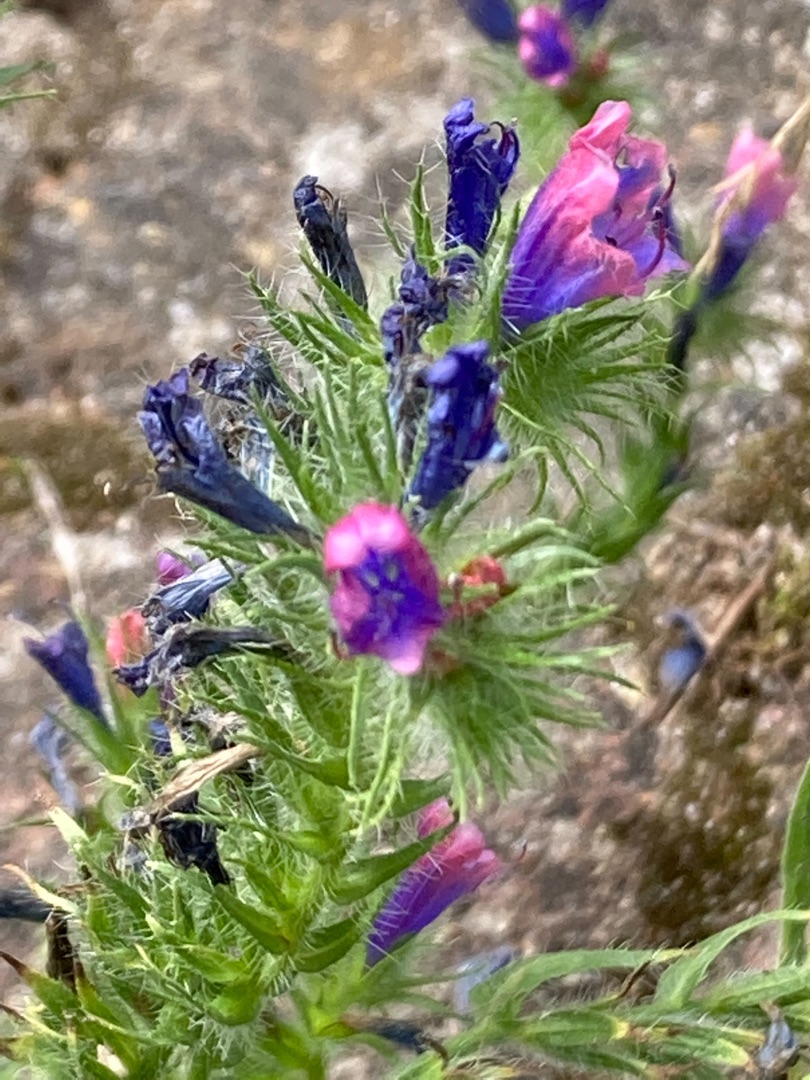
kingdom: Plantae
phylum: Tracheophyta
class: Magnoliopsida
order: Boraginales
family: Boraginaceae
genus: Echium
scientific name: Echium plantagineum
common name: Vejbred-slangehoved
